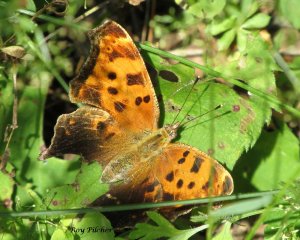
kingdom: Animalia
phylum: Arthropoda
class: Insecta
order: Lepidoptera
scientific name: Lepidoptera
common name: Butterflies
